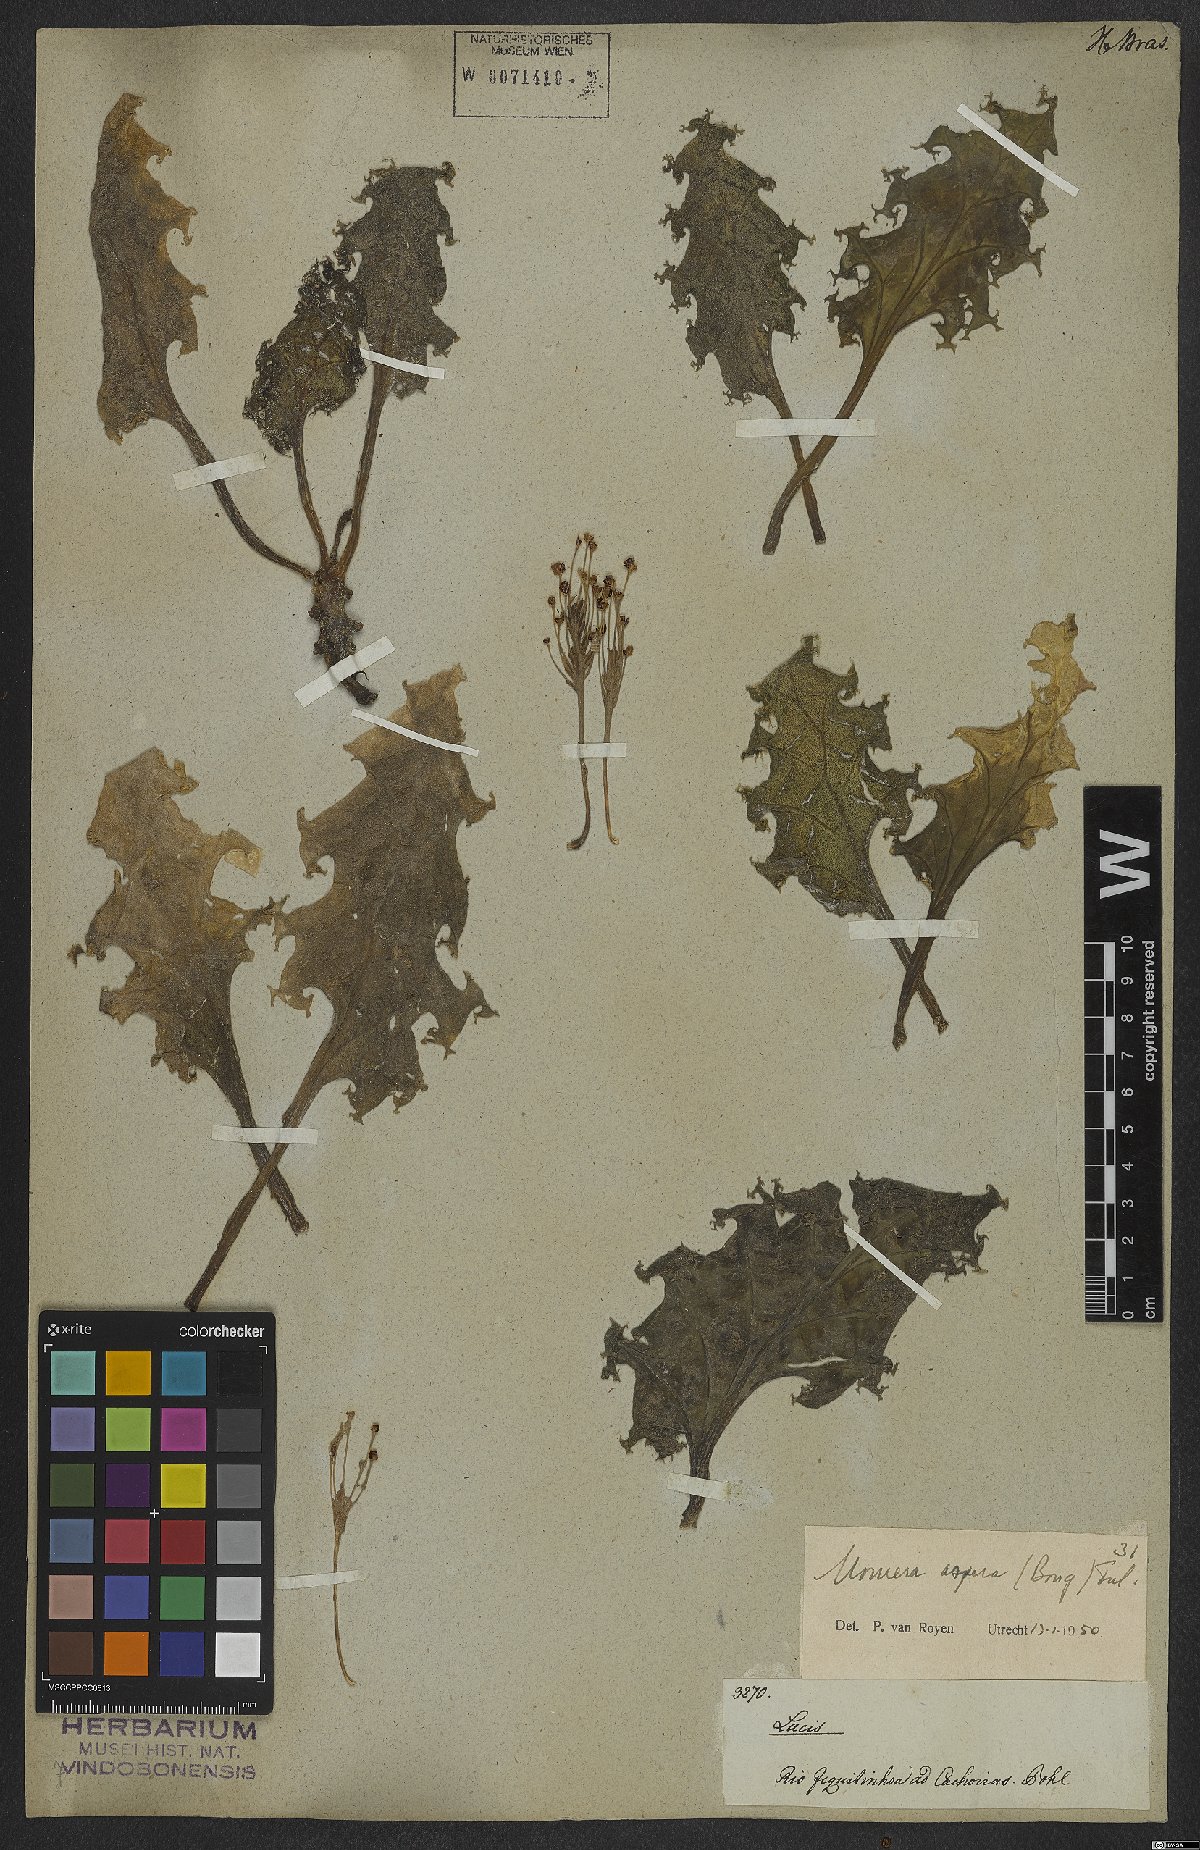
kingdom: Plantae
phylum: Tracheophyta
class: Magnoliopsida
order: Malpighiales
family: Podostemaceae
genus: Mourera
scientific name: Mourera aspera
